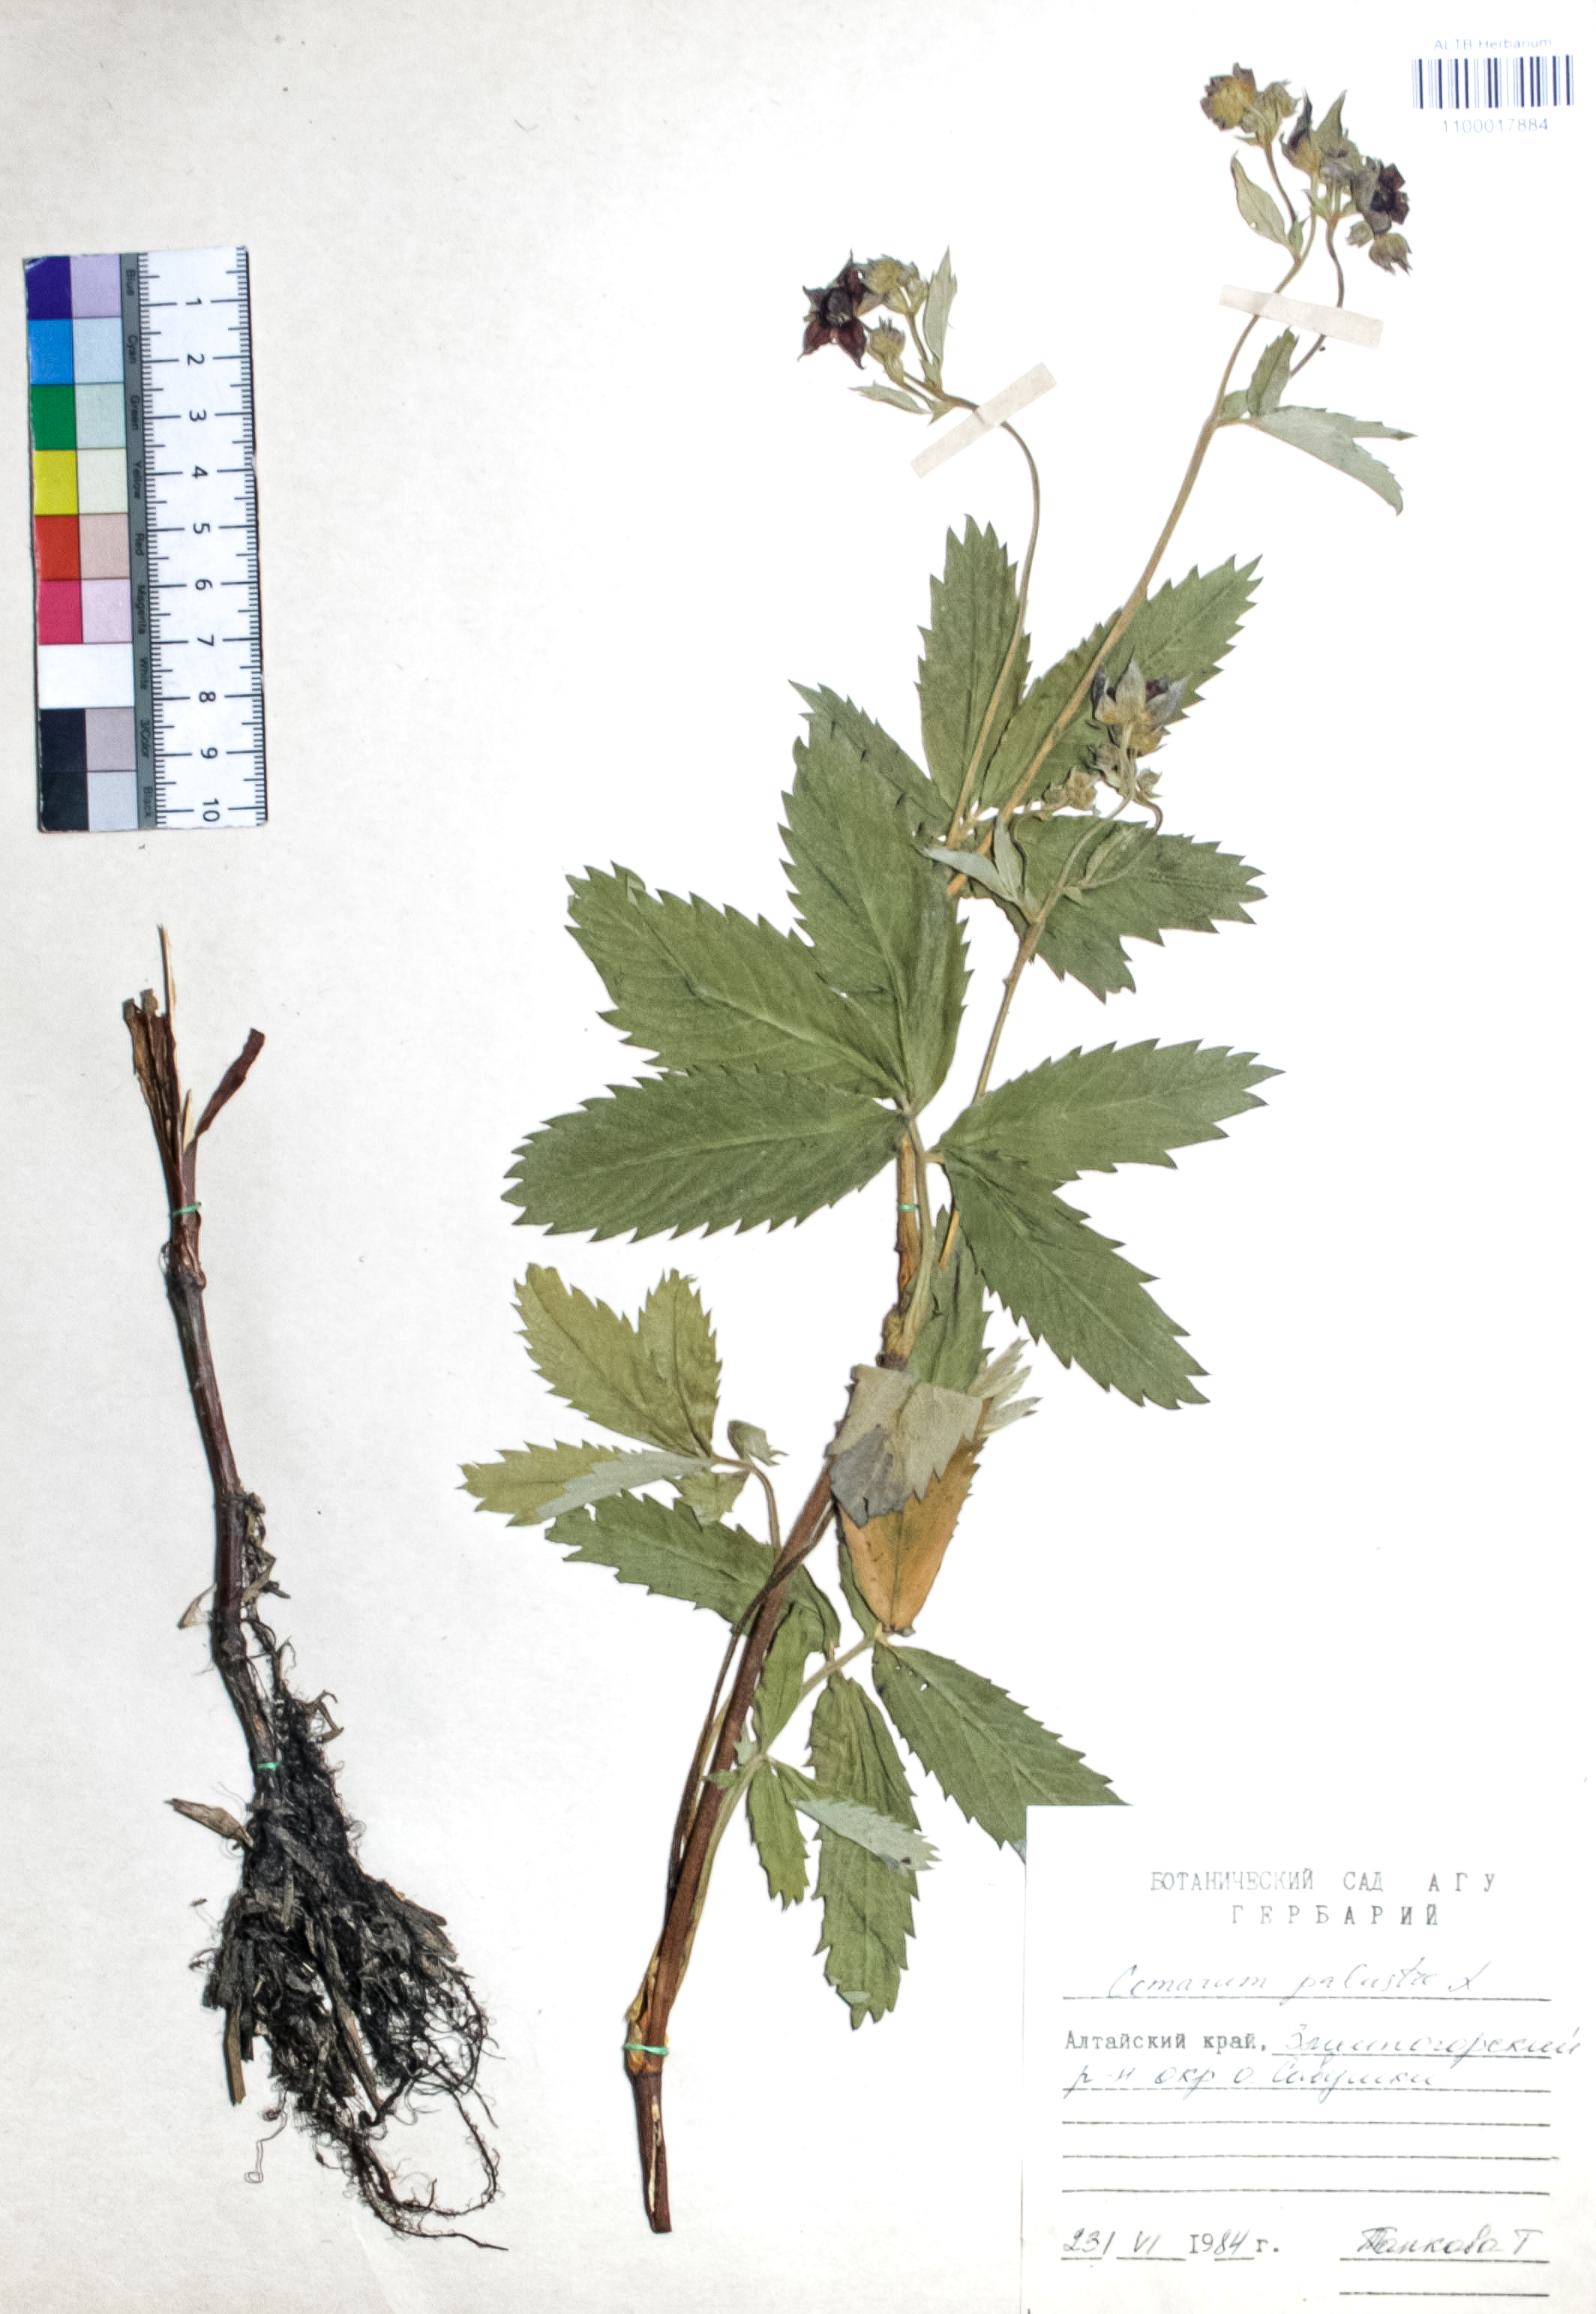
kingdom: Plantae
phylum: Tracheophyta
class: Magnoliopsida
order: Rosales
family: Rosaceae
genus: Comarum
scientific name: Comarum palustre
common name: Marsh cinquefoil
